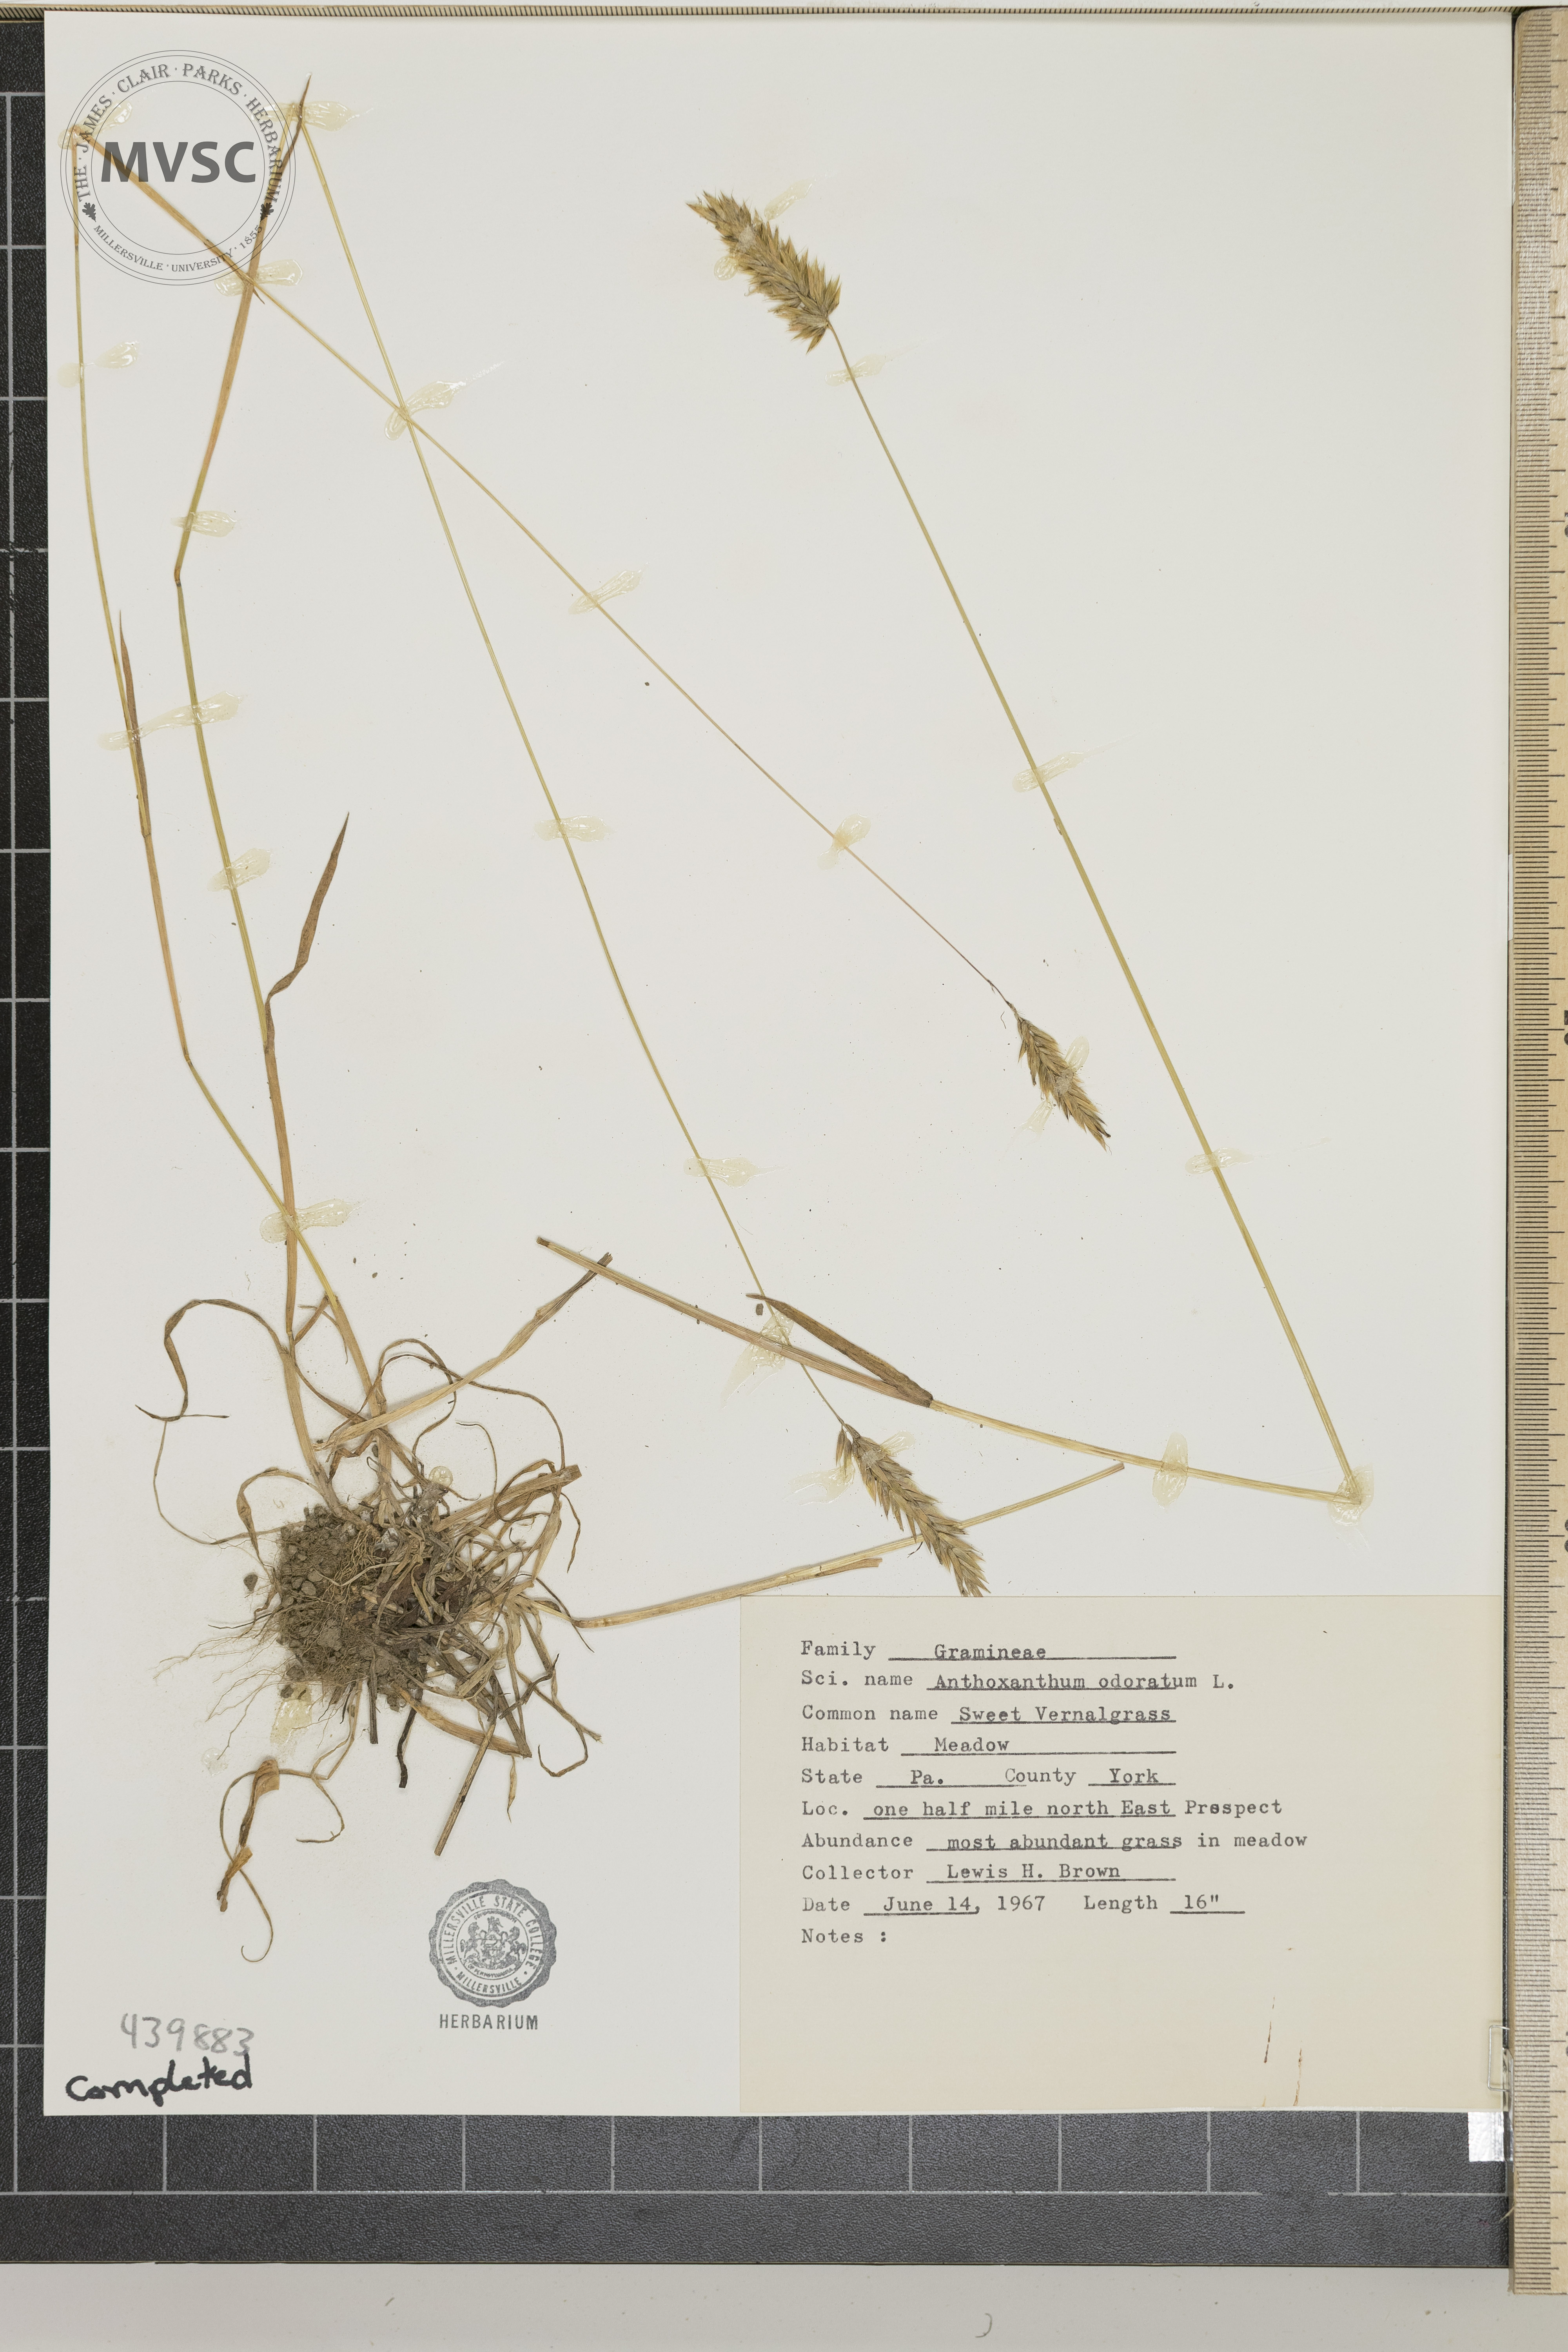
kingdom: Plantae
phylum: Tracheophyta
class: Liliopsida
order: Poales
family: Poaceae
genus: Anthoxanthum
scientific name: Anthoxanthum odoratum
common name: Sweet vernal grass
